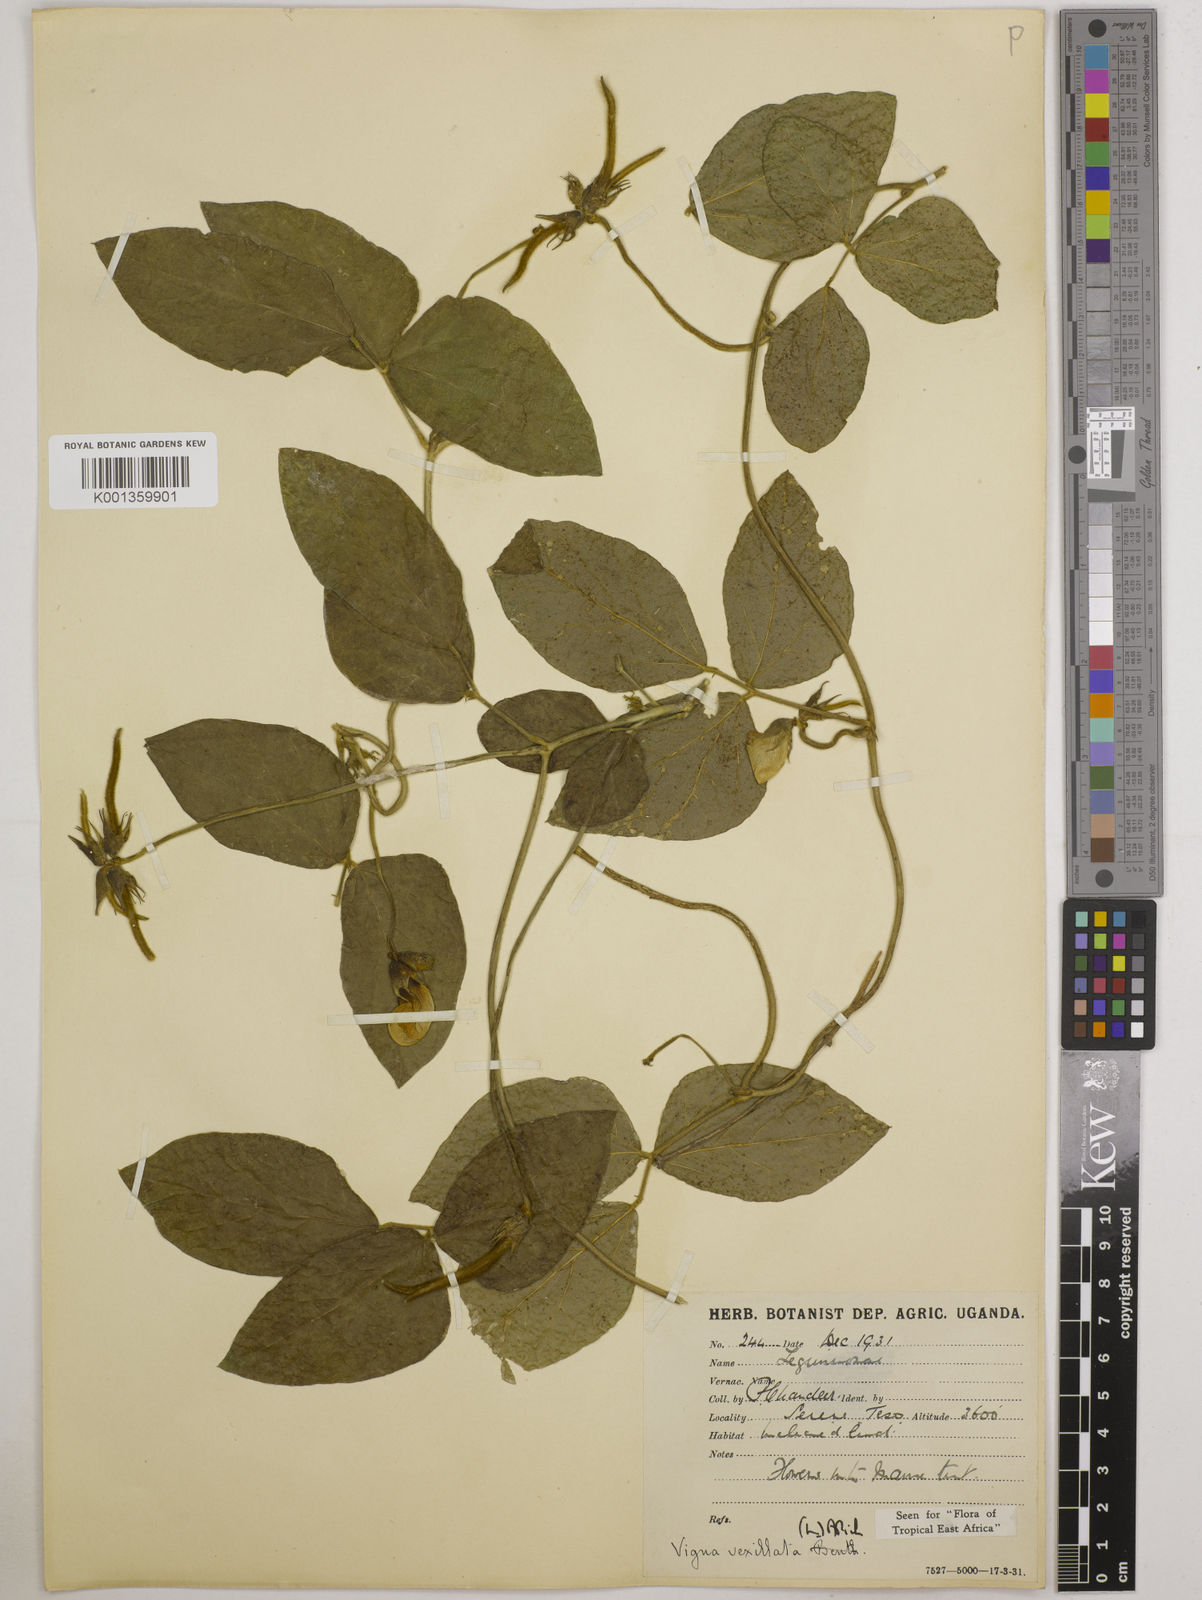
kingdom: Plantae
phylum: Tracheophyta
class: Magnoliopsida
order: Fabales
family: Fabaceae
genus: Vigna
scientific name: Vigna vexillata
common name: Zombi pea
